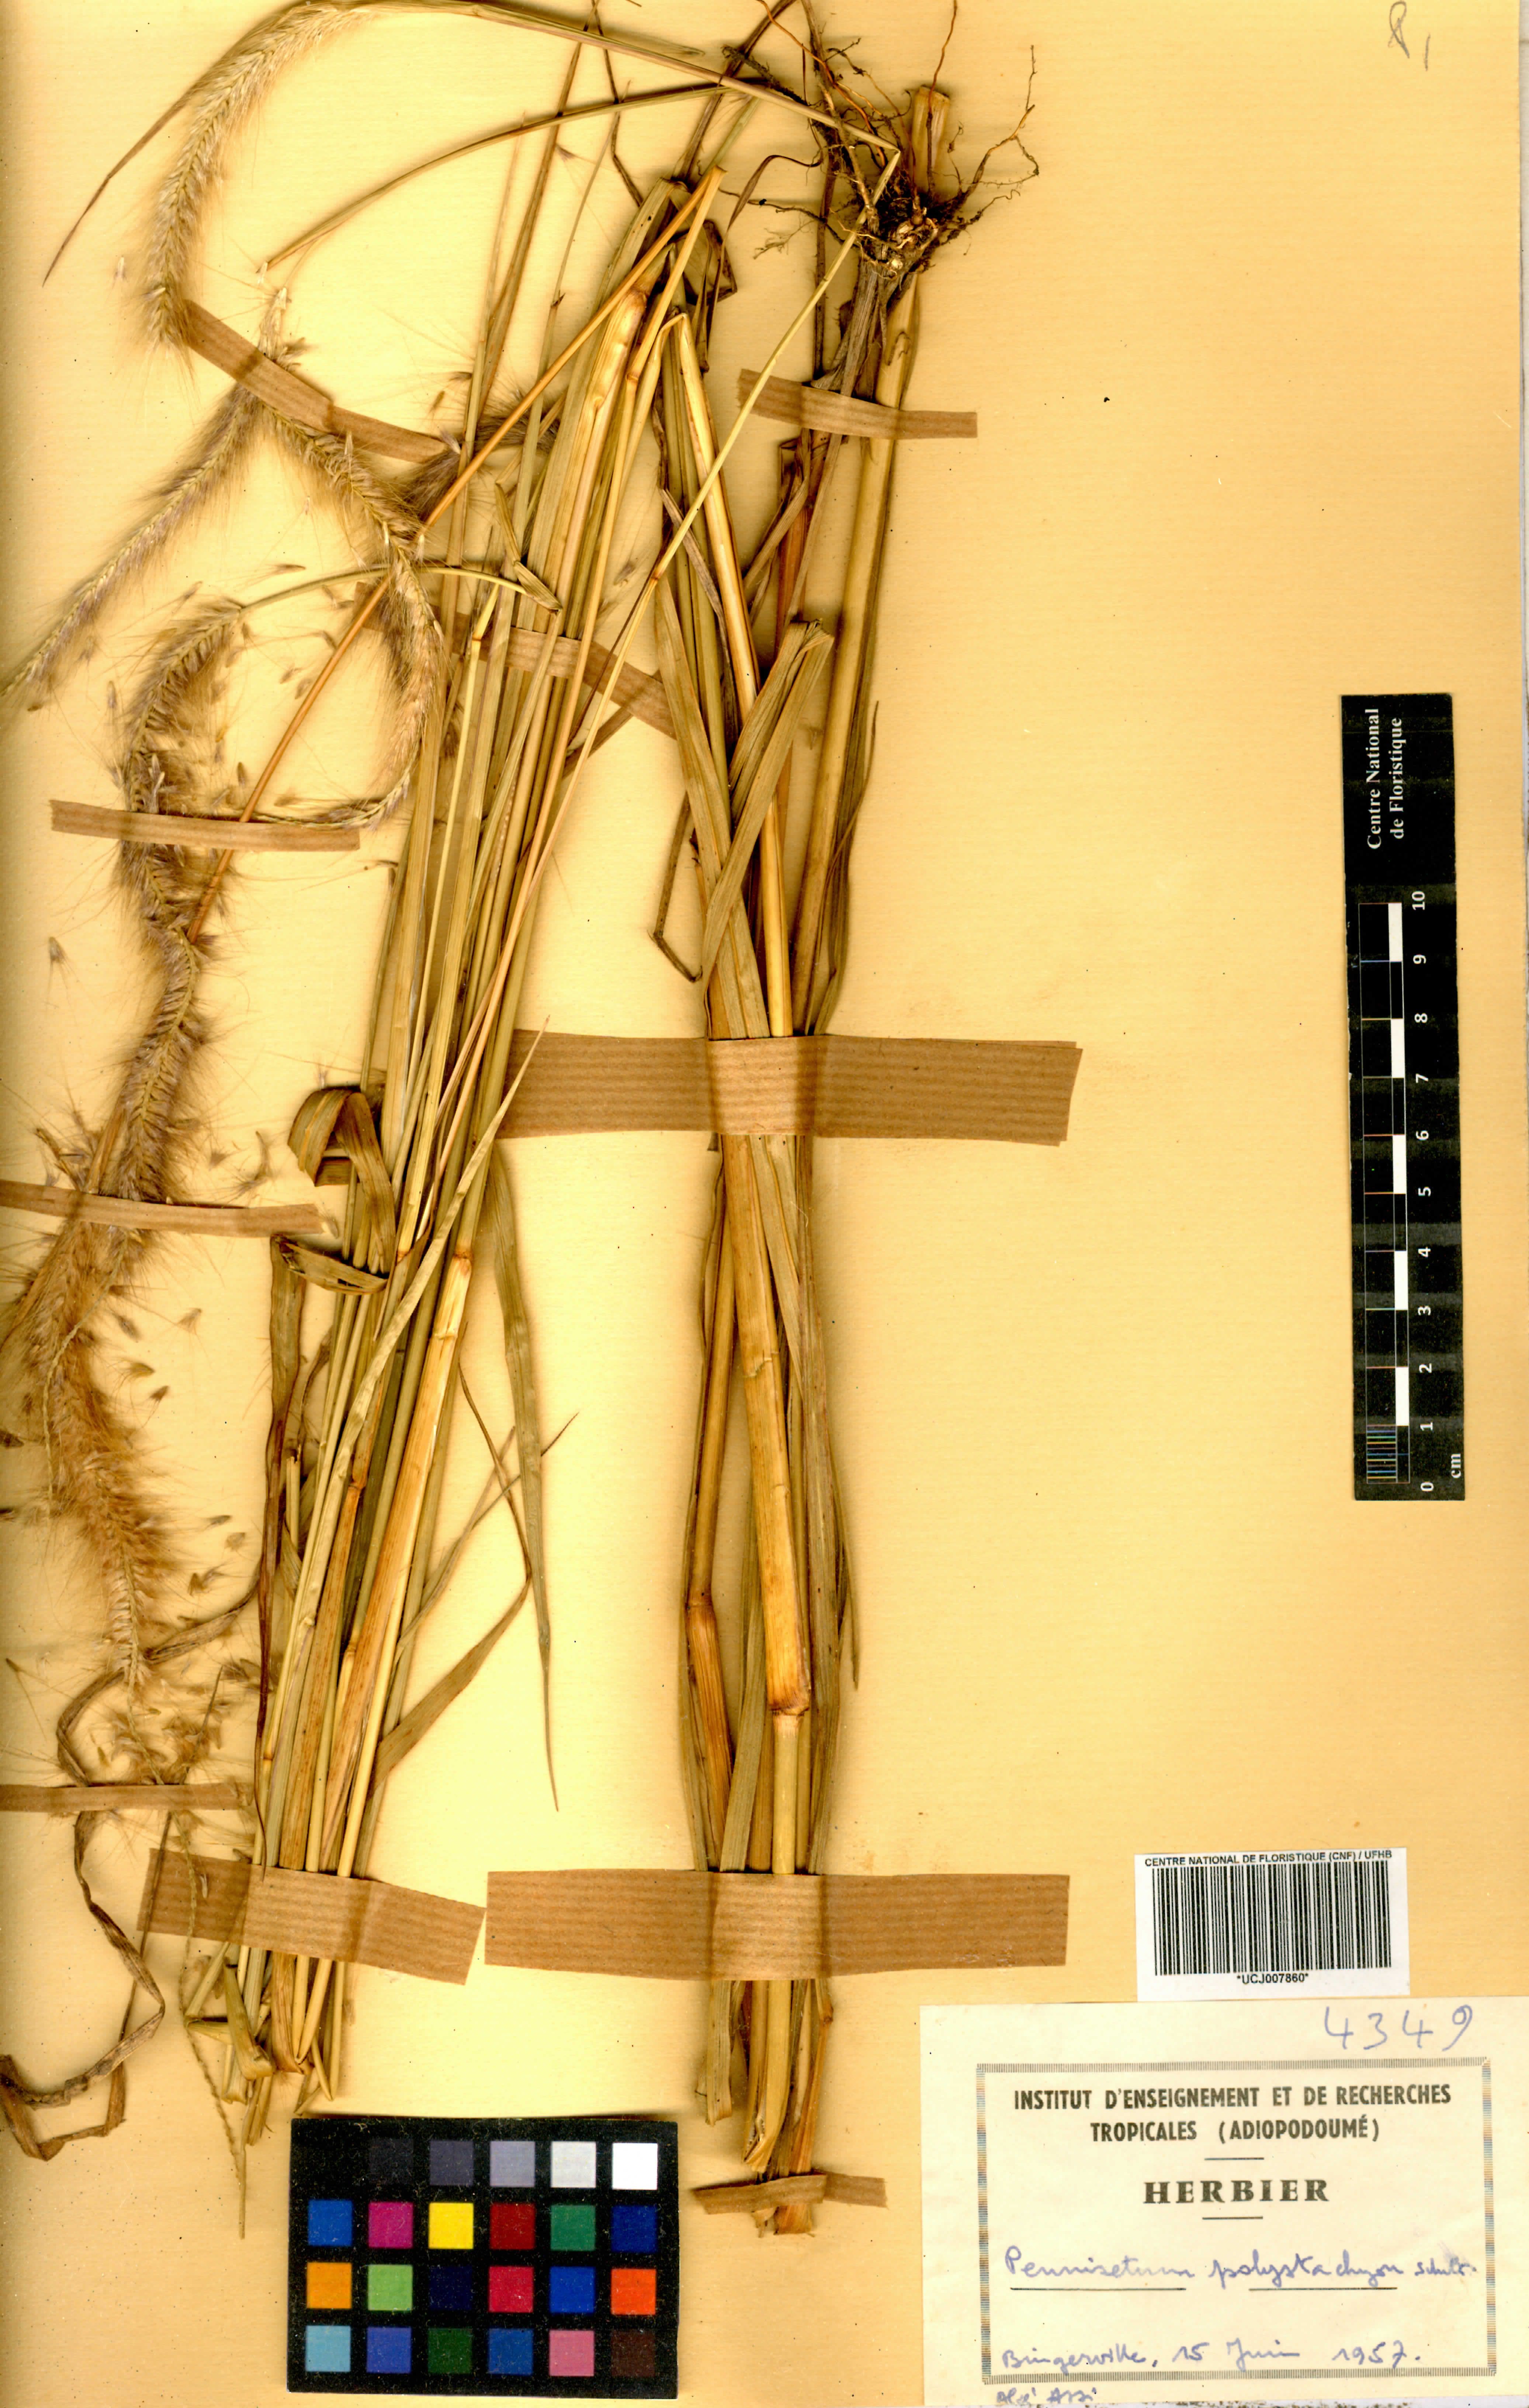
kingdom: Plantae
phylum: Tracheophyta
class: Liliopsida
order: Poales
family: Poaceae
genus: Setaria
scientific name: Setaria parviflora
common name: Knotroot bristle-grass
